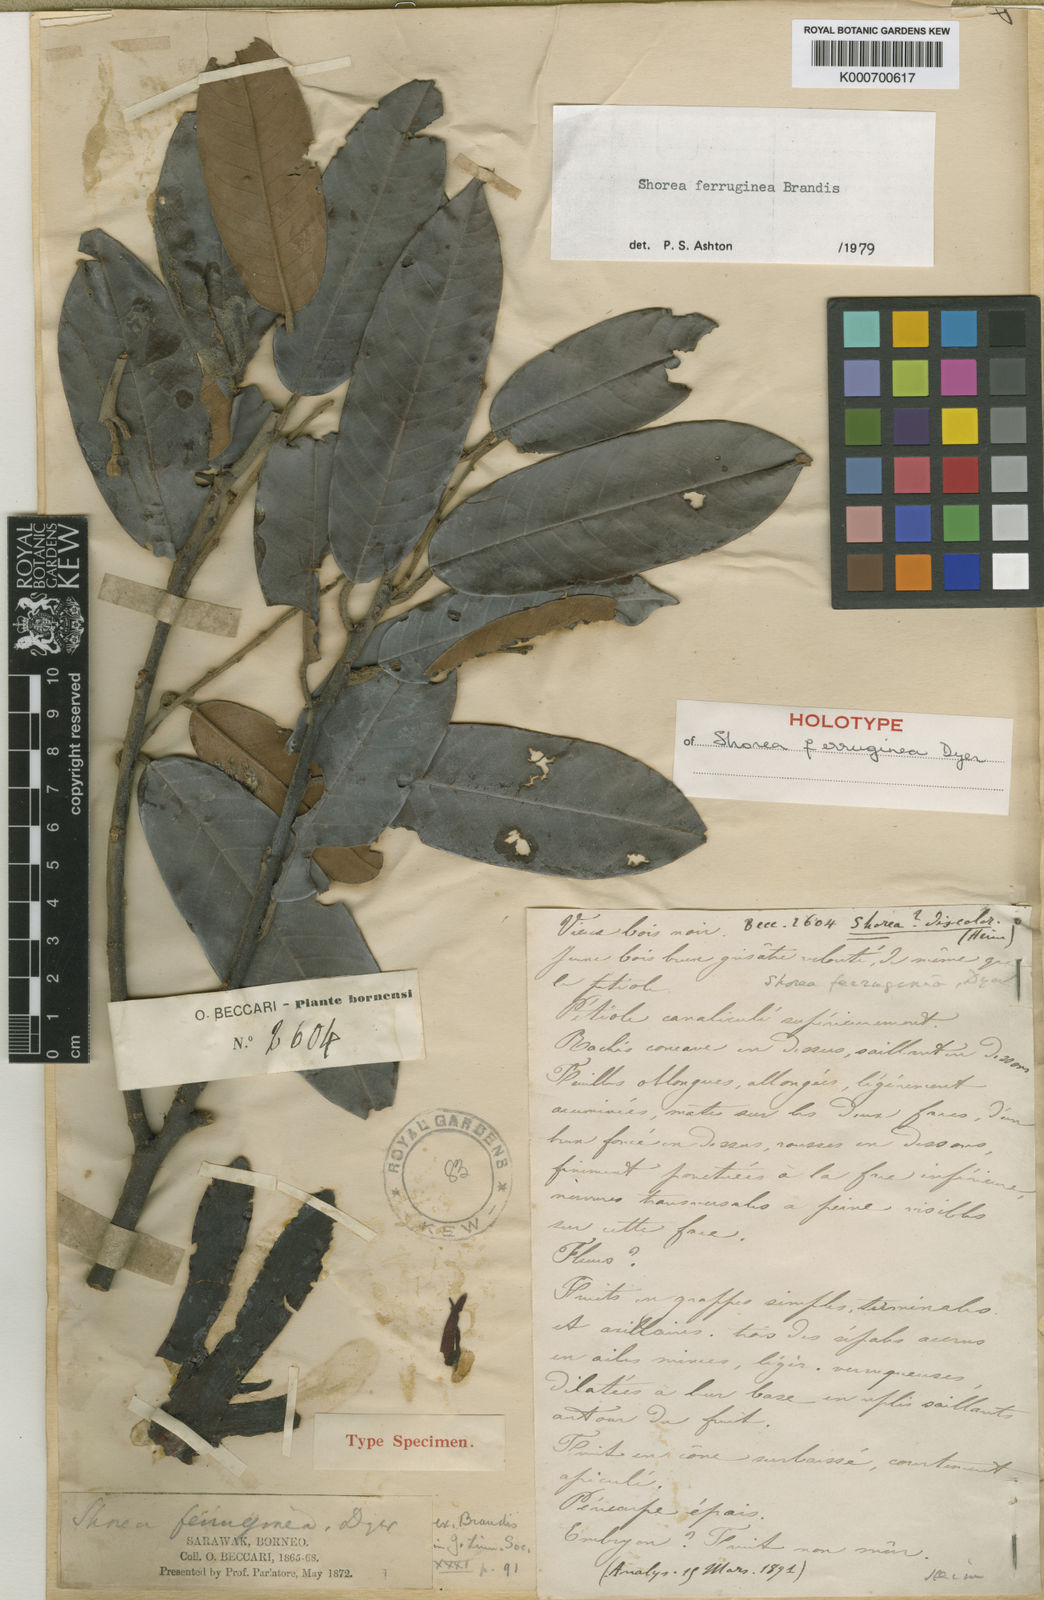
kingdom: Plantae
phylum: Tracheophyta
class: Magnoliopsida
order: Malvales
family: Dipterocarpaceae
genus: Shorea
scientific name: Shorea ferruginea
